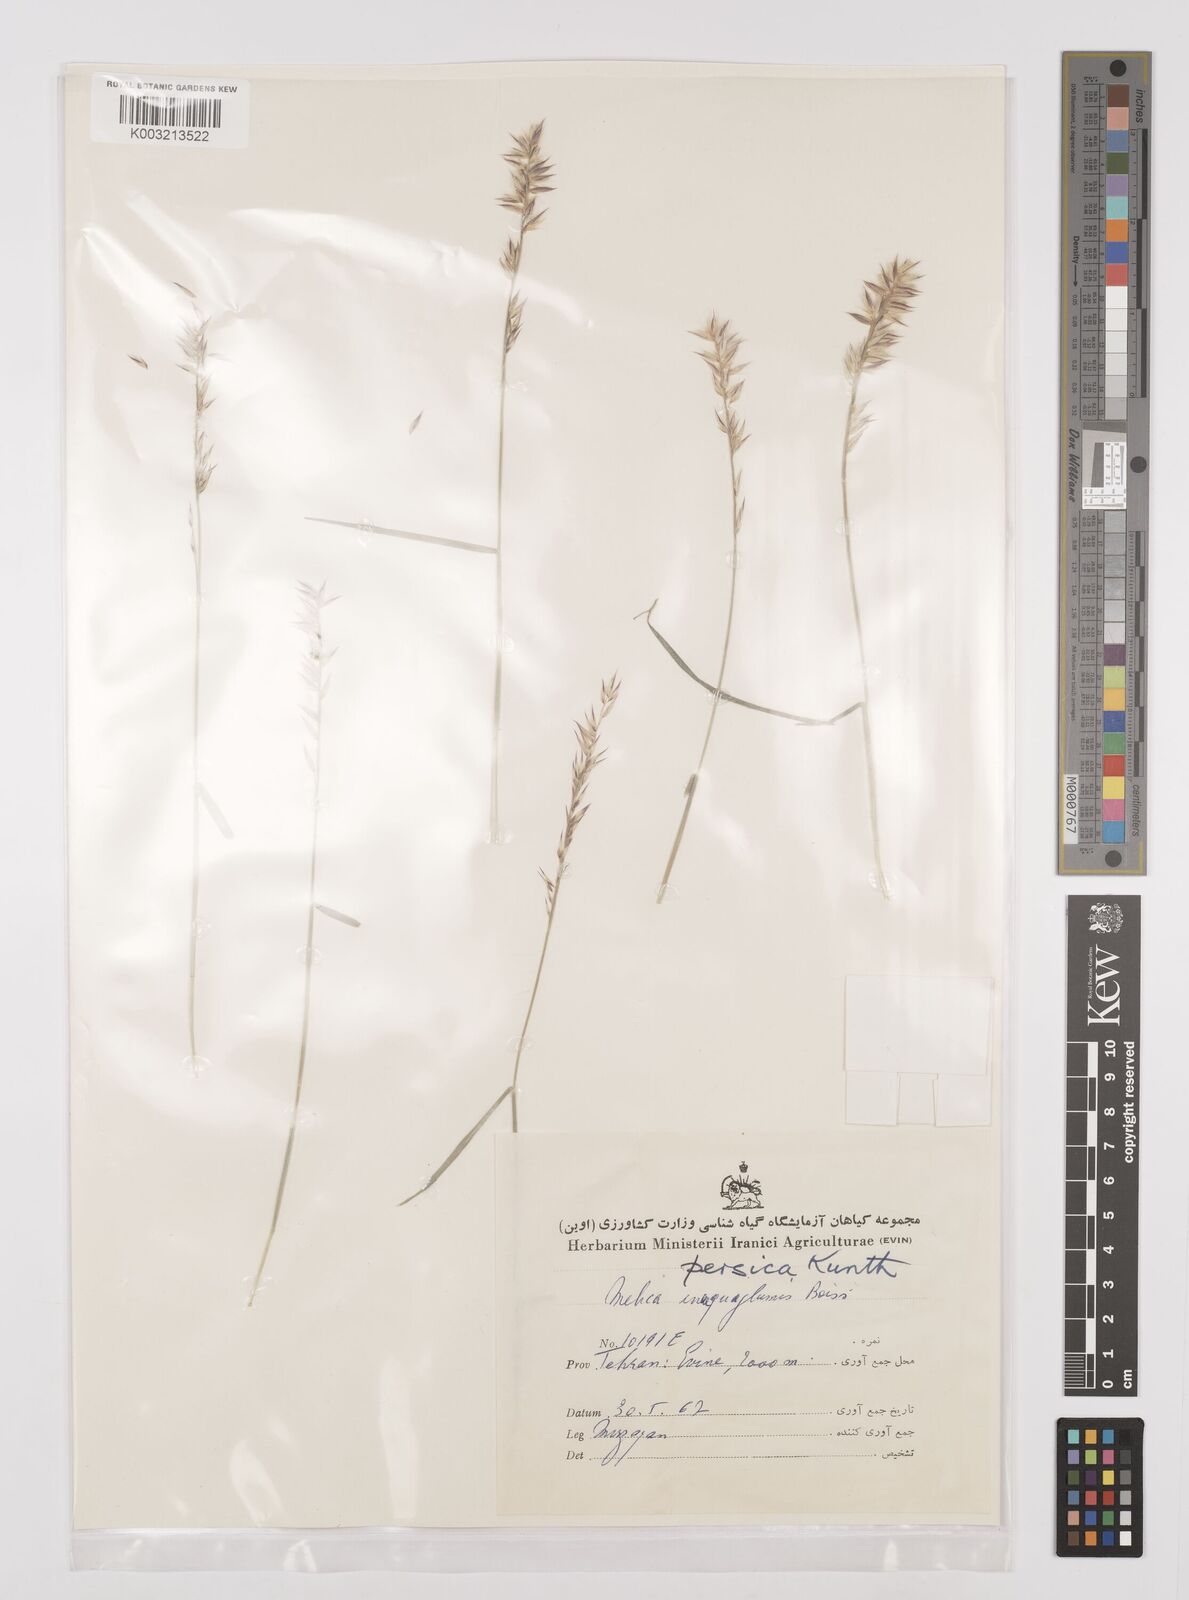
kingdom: Plantae
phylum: Tracheophyta
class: Liliopsida
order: Poales
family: Poaceae
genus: Melica
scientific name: Melica persica
